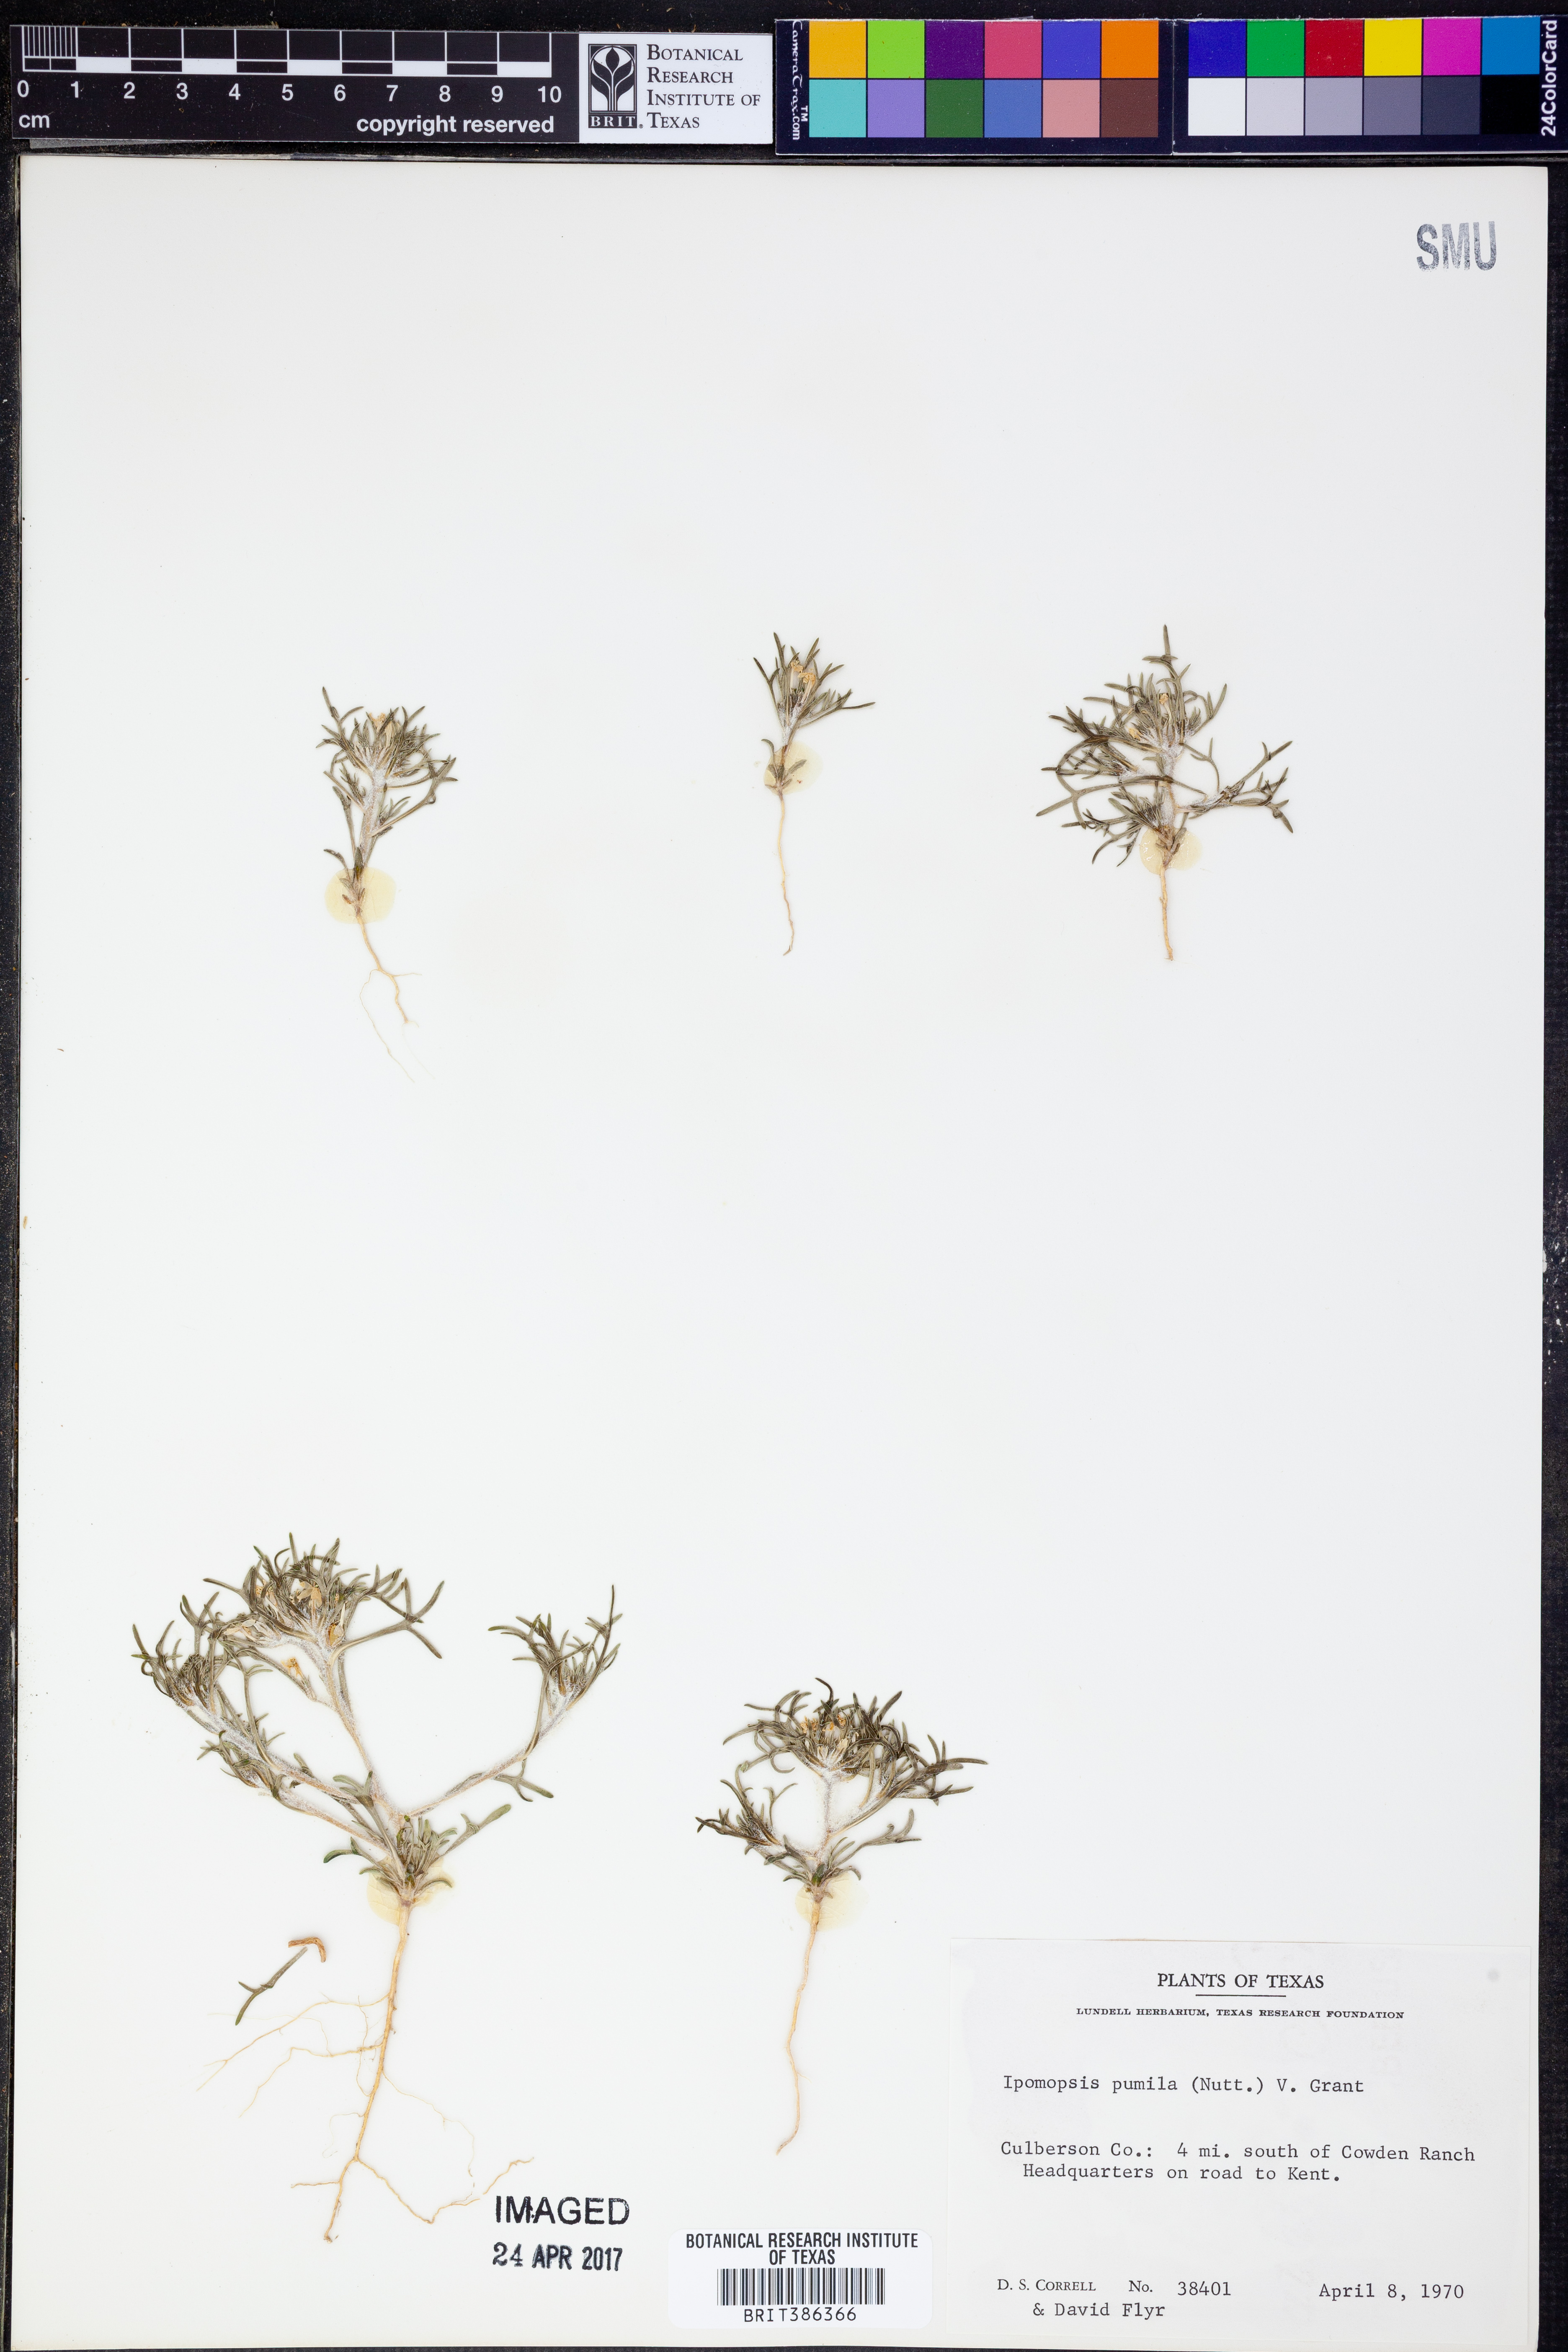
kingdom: Plantae
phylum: Tracheophyta
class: Magnoliopsida
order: Ericales
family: Polemoniaceae
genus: Ipomopsis
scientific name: Ipomopsis pumila
